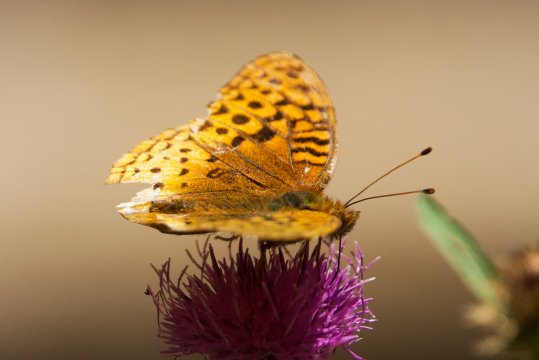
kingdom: Animalia
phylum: Arthropoda
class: Insecta
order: Lepidoptera
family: Nymphalidae
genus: Speyeria
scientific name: Speyeria cybele
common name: Great Spangled Fritillary
